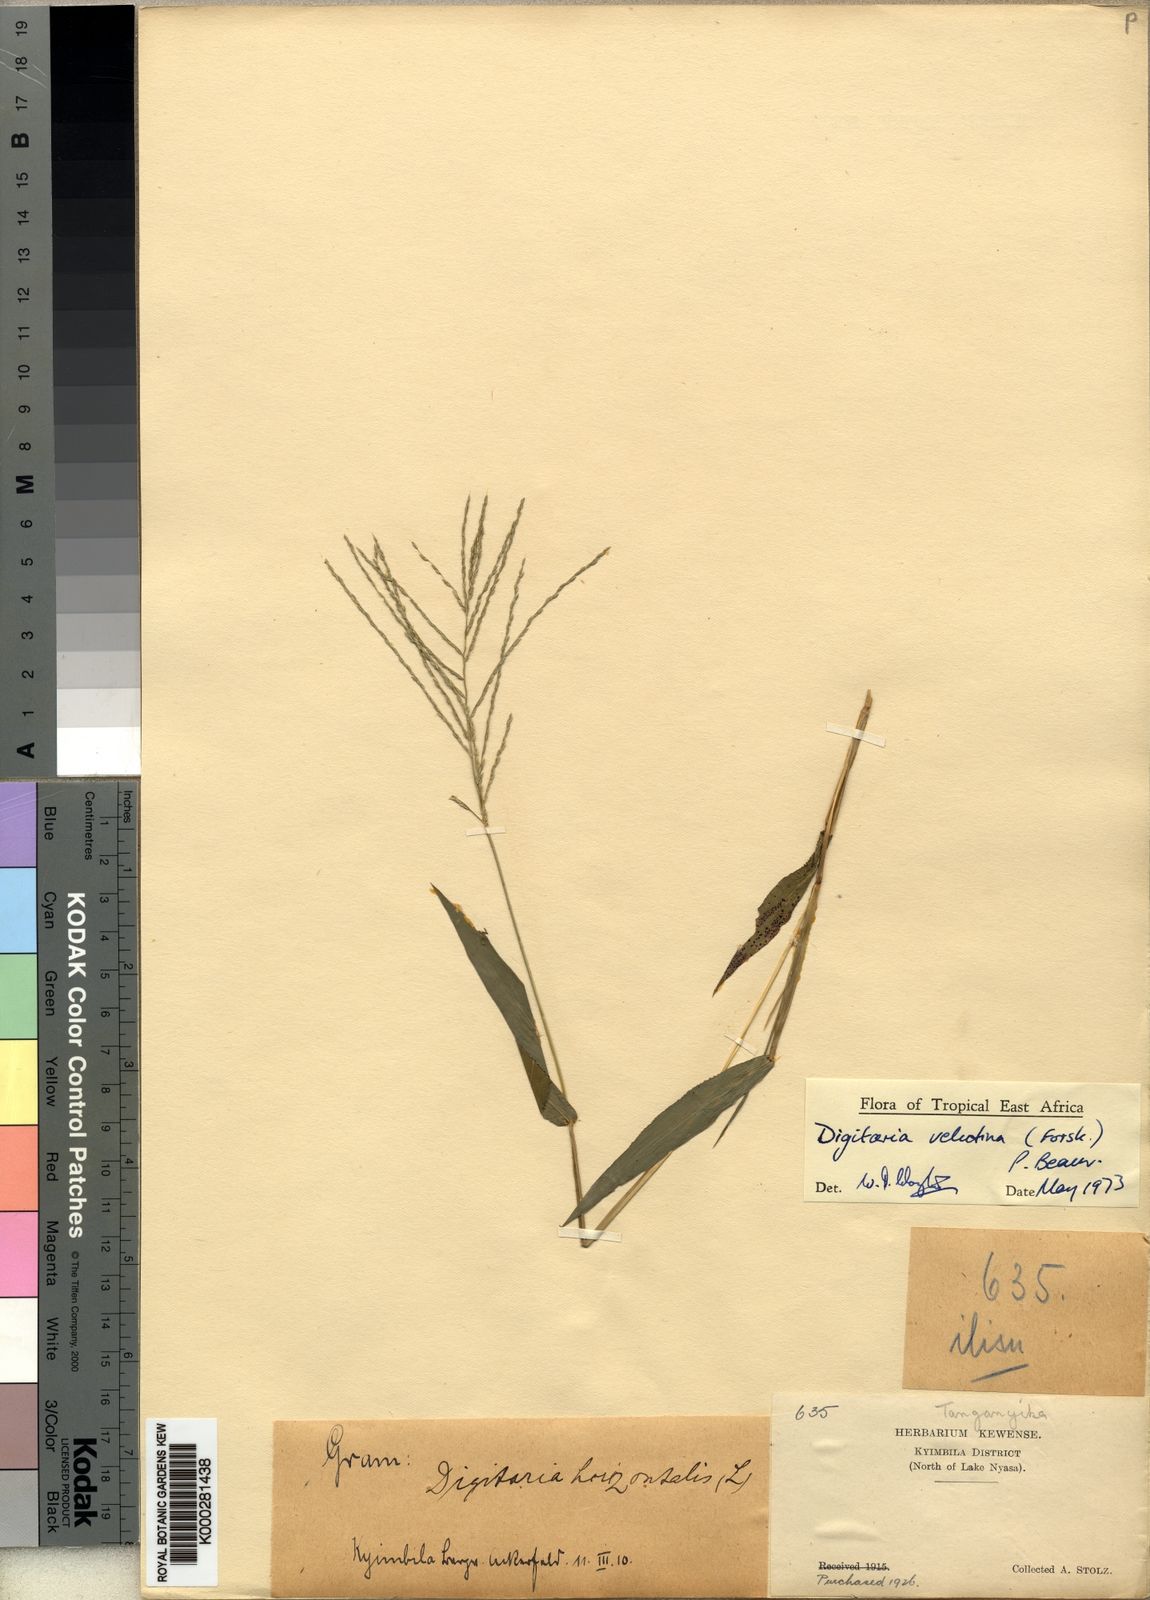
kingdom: Plantae
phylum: Tracheophyta
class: Liliopsida
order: Poales
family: Poaceae
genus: Digitaria
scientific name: Digitaria velutina
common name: Long-plume finger grass
